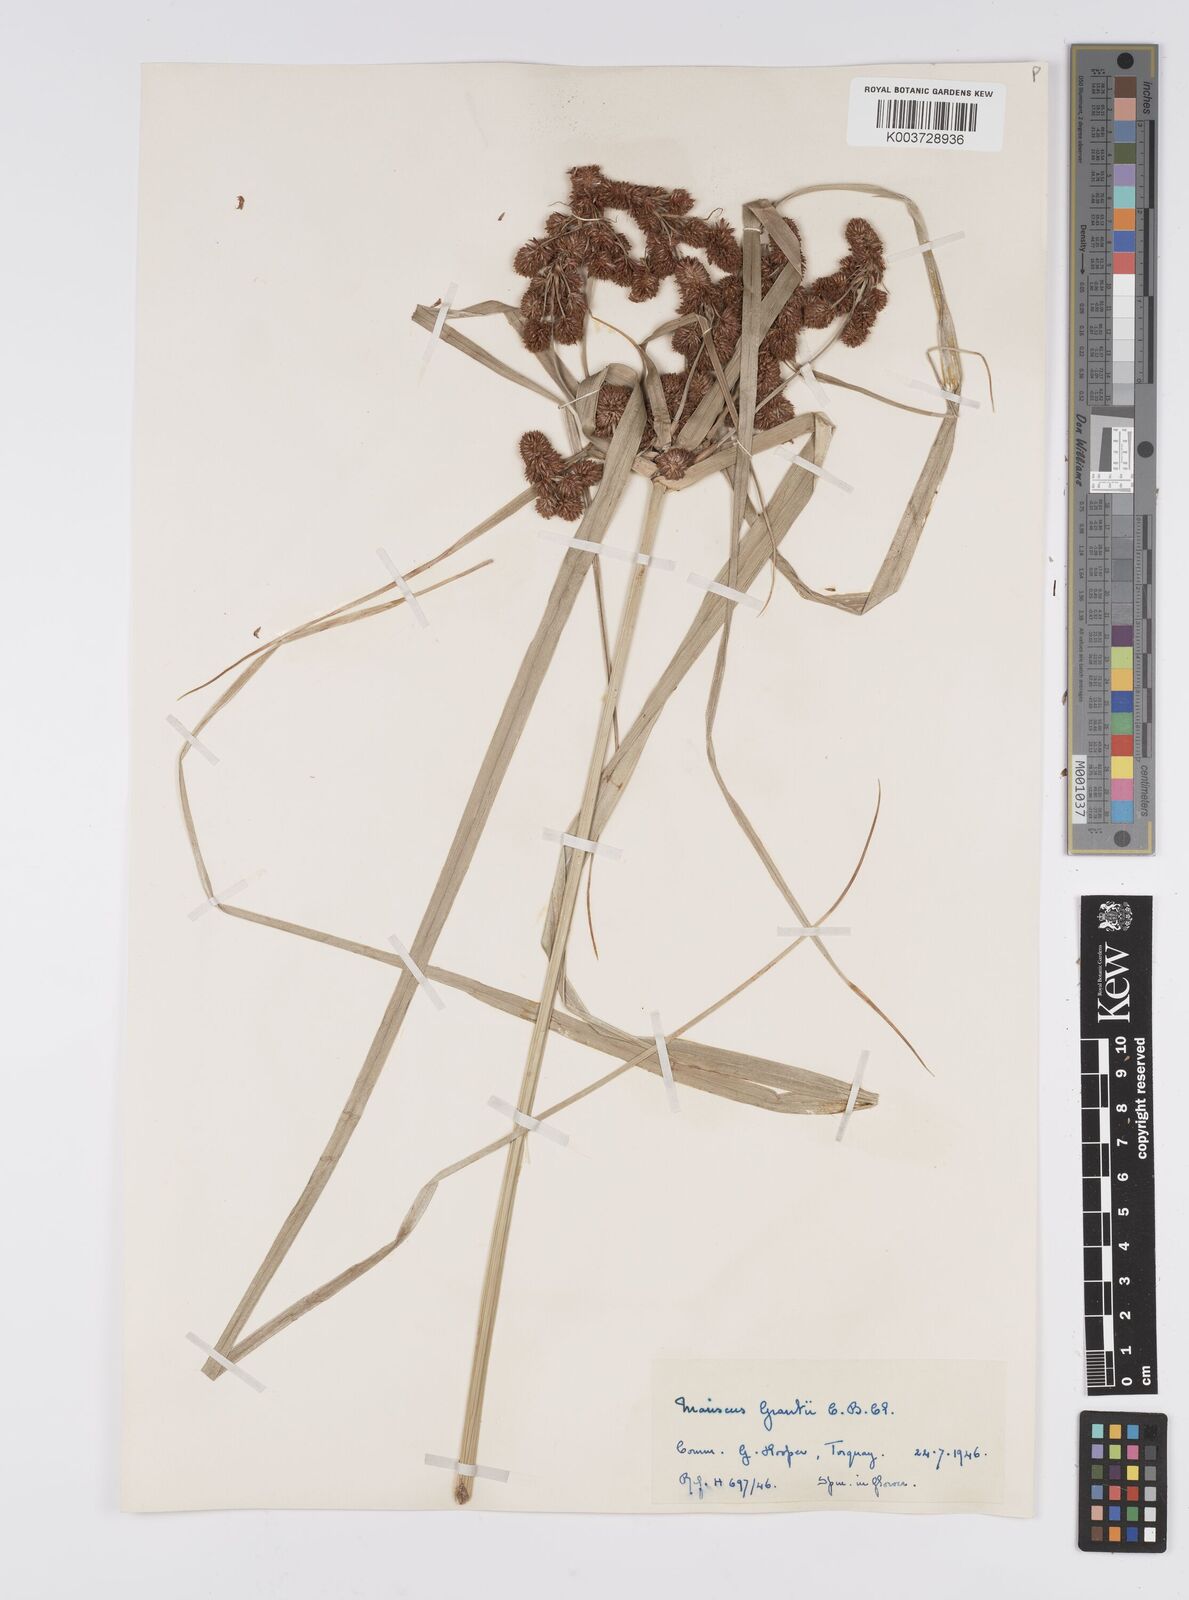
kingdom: Plantae
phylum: Tracheophyta
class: Liliopsida
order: Poales
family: Cyperaceae
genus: Cyperus
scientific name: Cyperus owanii
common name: Owan's flatsedge
